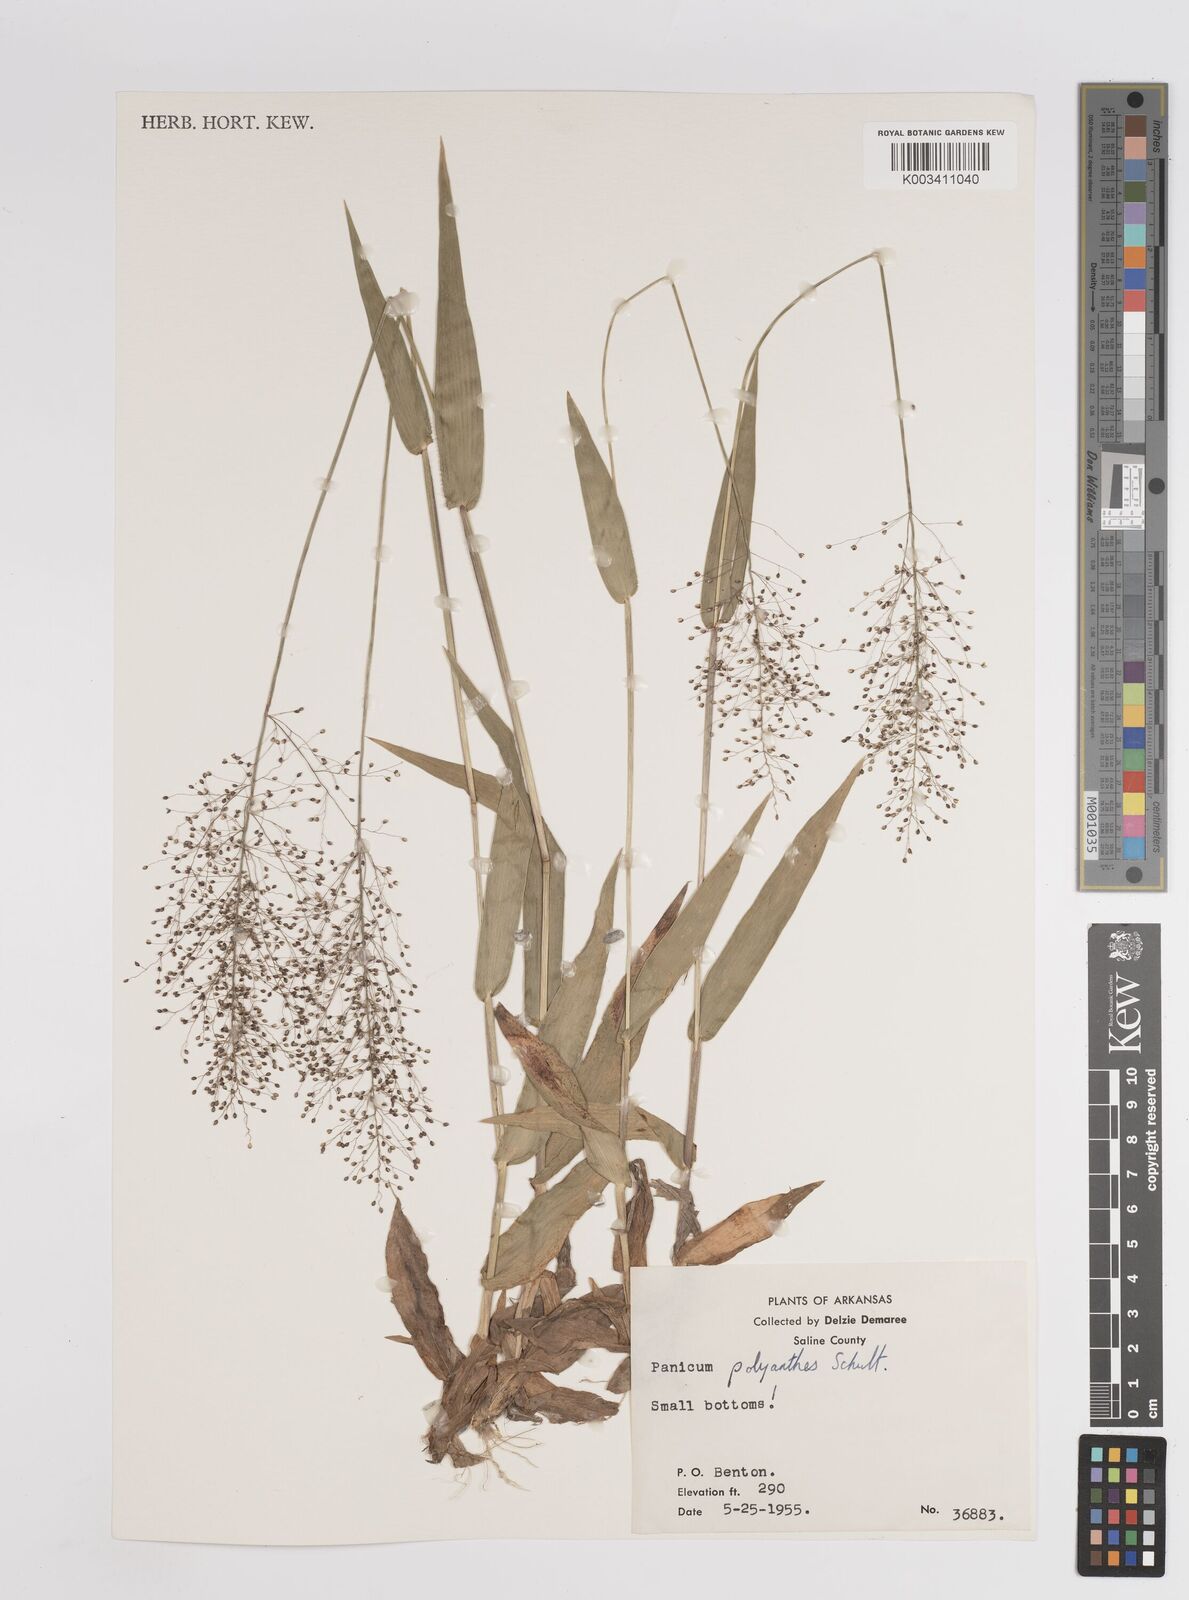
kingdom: Plantae
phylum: Tracheophyta
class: Liliopsida
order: Poales
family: Poaceae
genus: Dichanthelium
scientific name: Dichanthelium polyanthes
